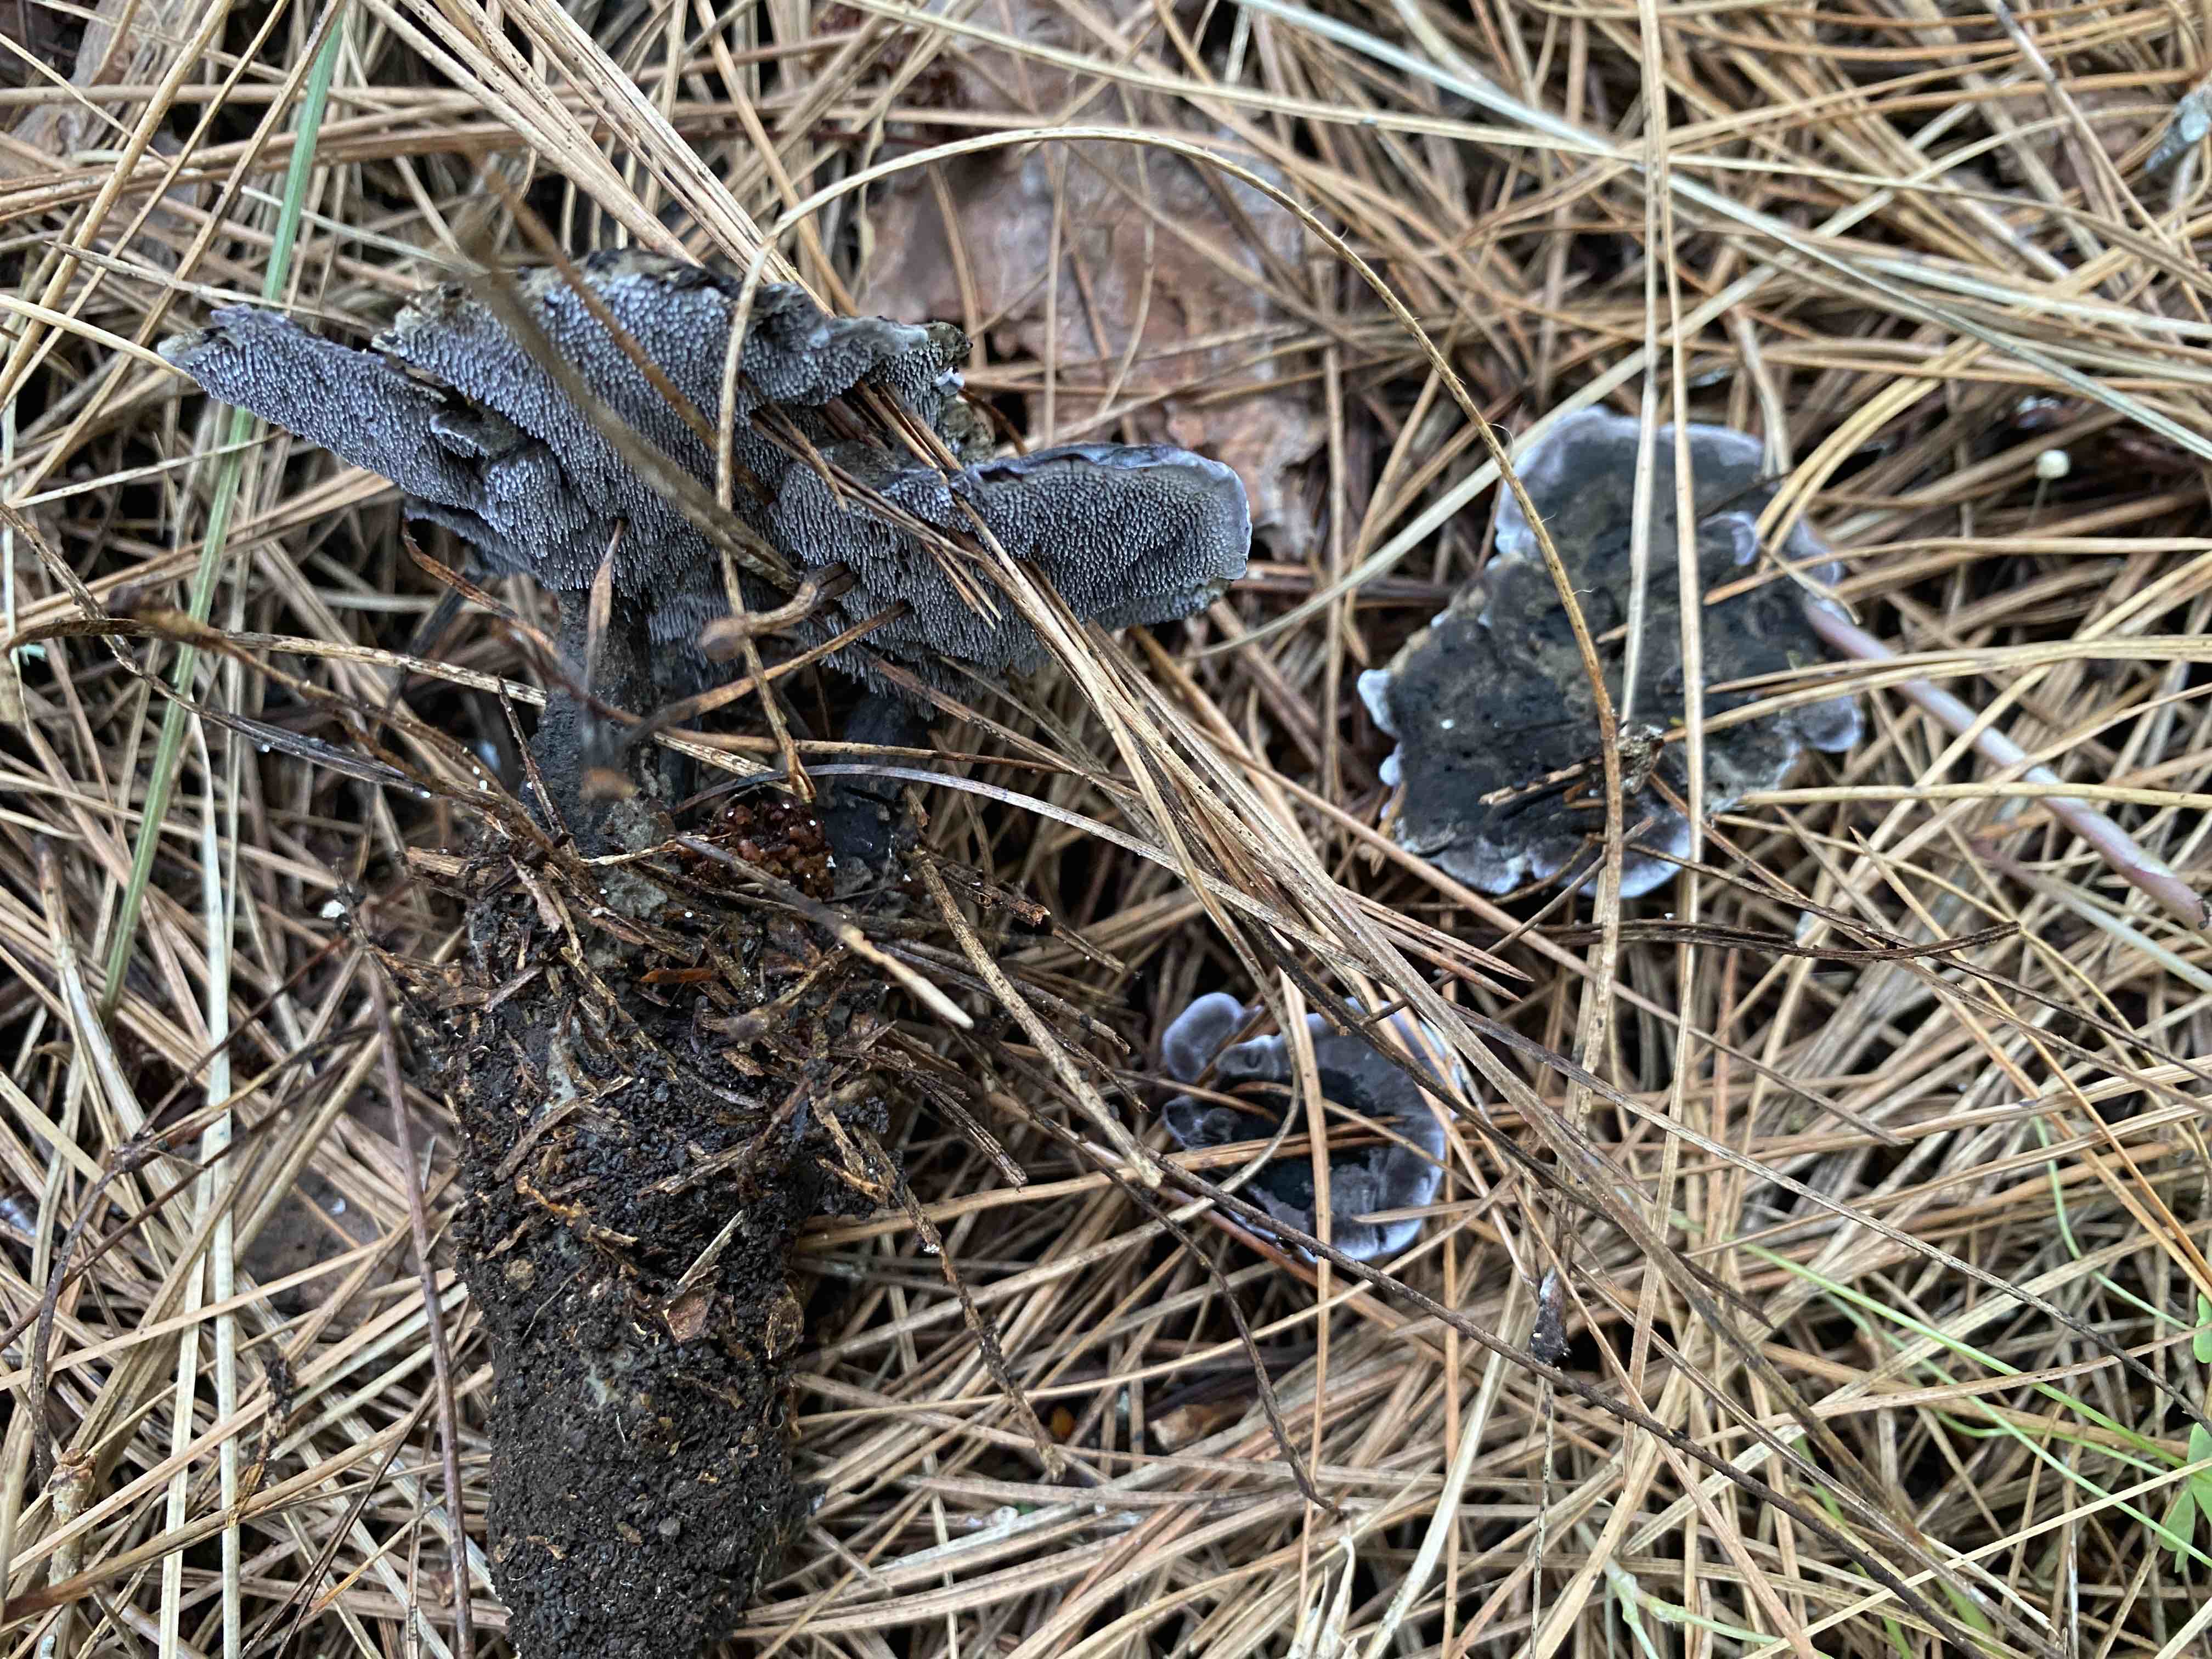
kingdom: Fungi
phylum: Basidiomycota
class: Agaricomycetes
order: Thelephorales
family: Thelephoraceae
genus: Phellodon
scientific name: Phellodon
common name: mørk duftpigsvamp
